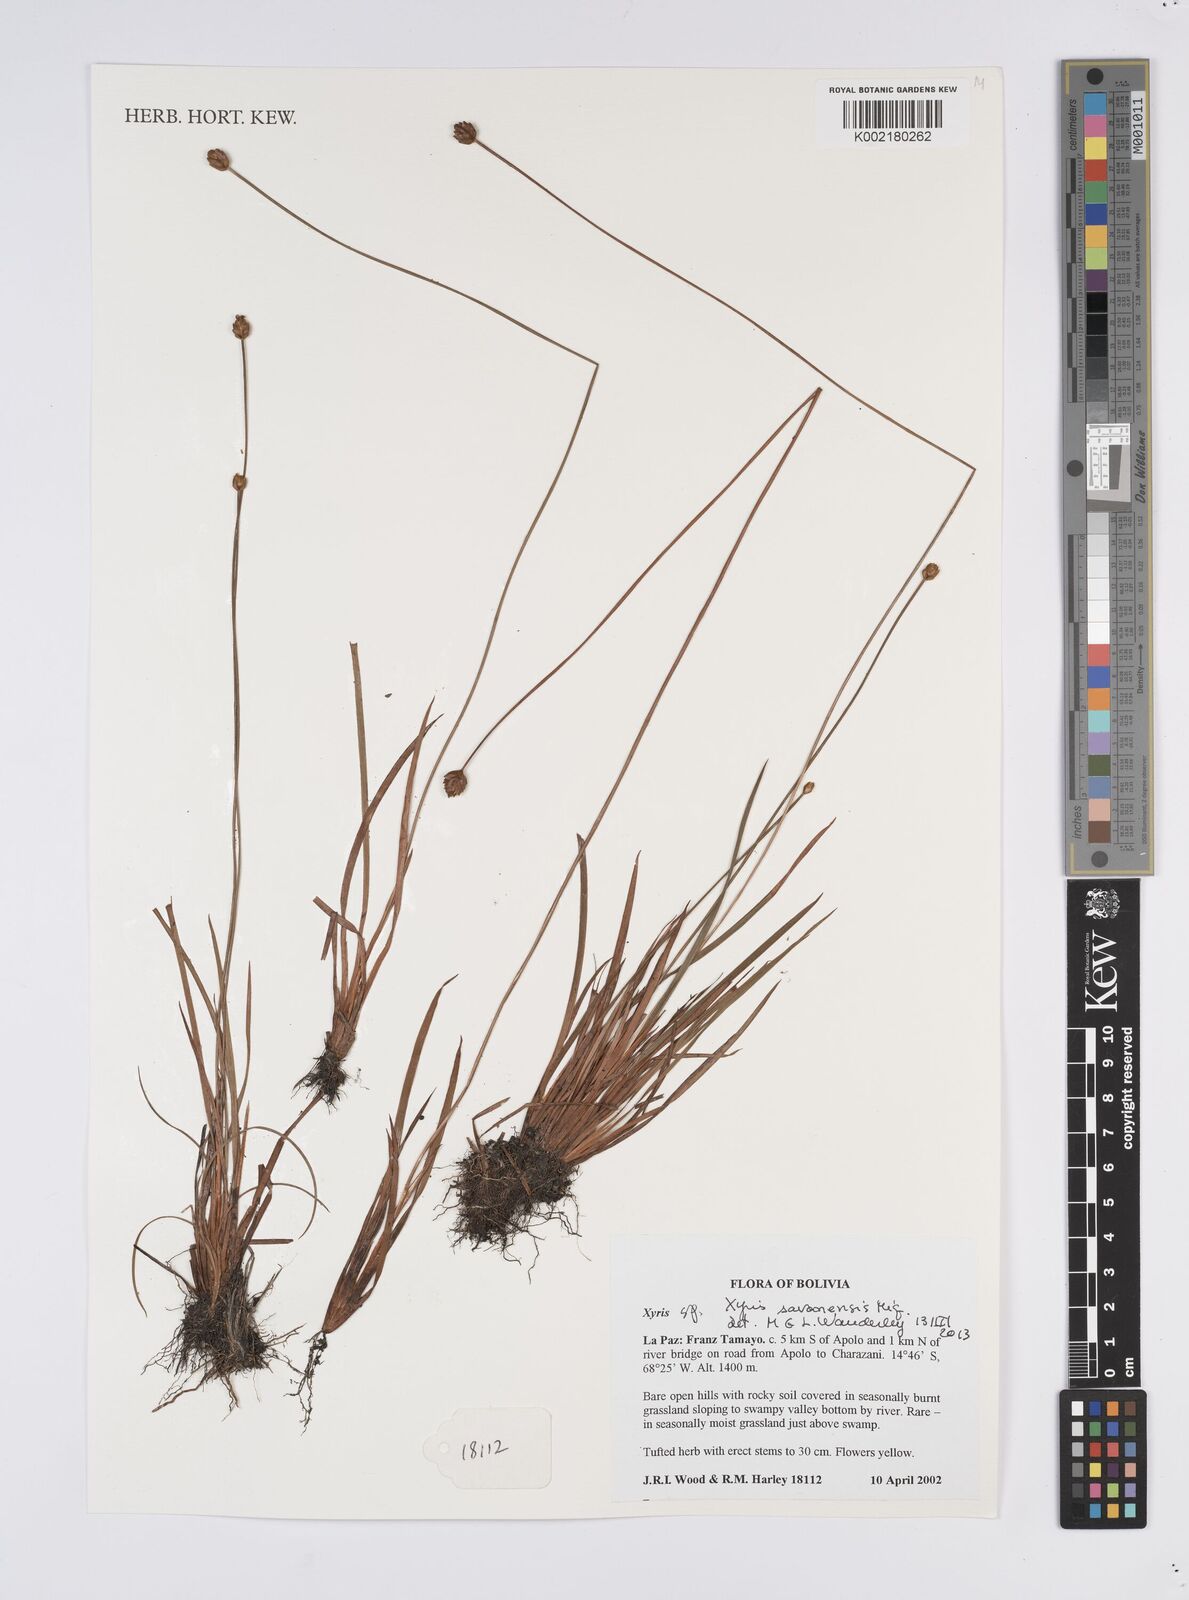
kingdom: Plantae
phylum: Tracheophyta
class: Liliopsida
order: Poales
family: Xyridaceae
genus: Xyris
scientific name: Xyris savanensis
